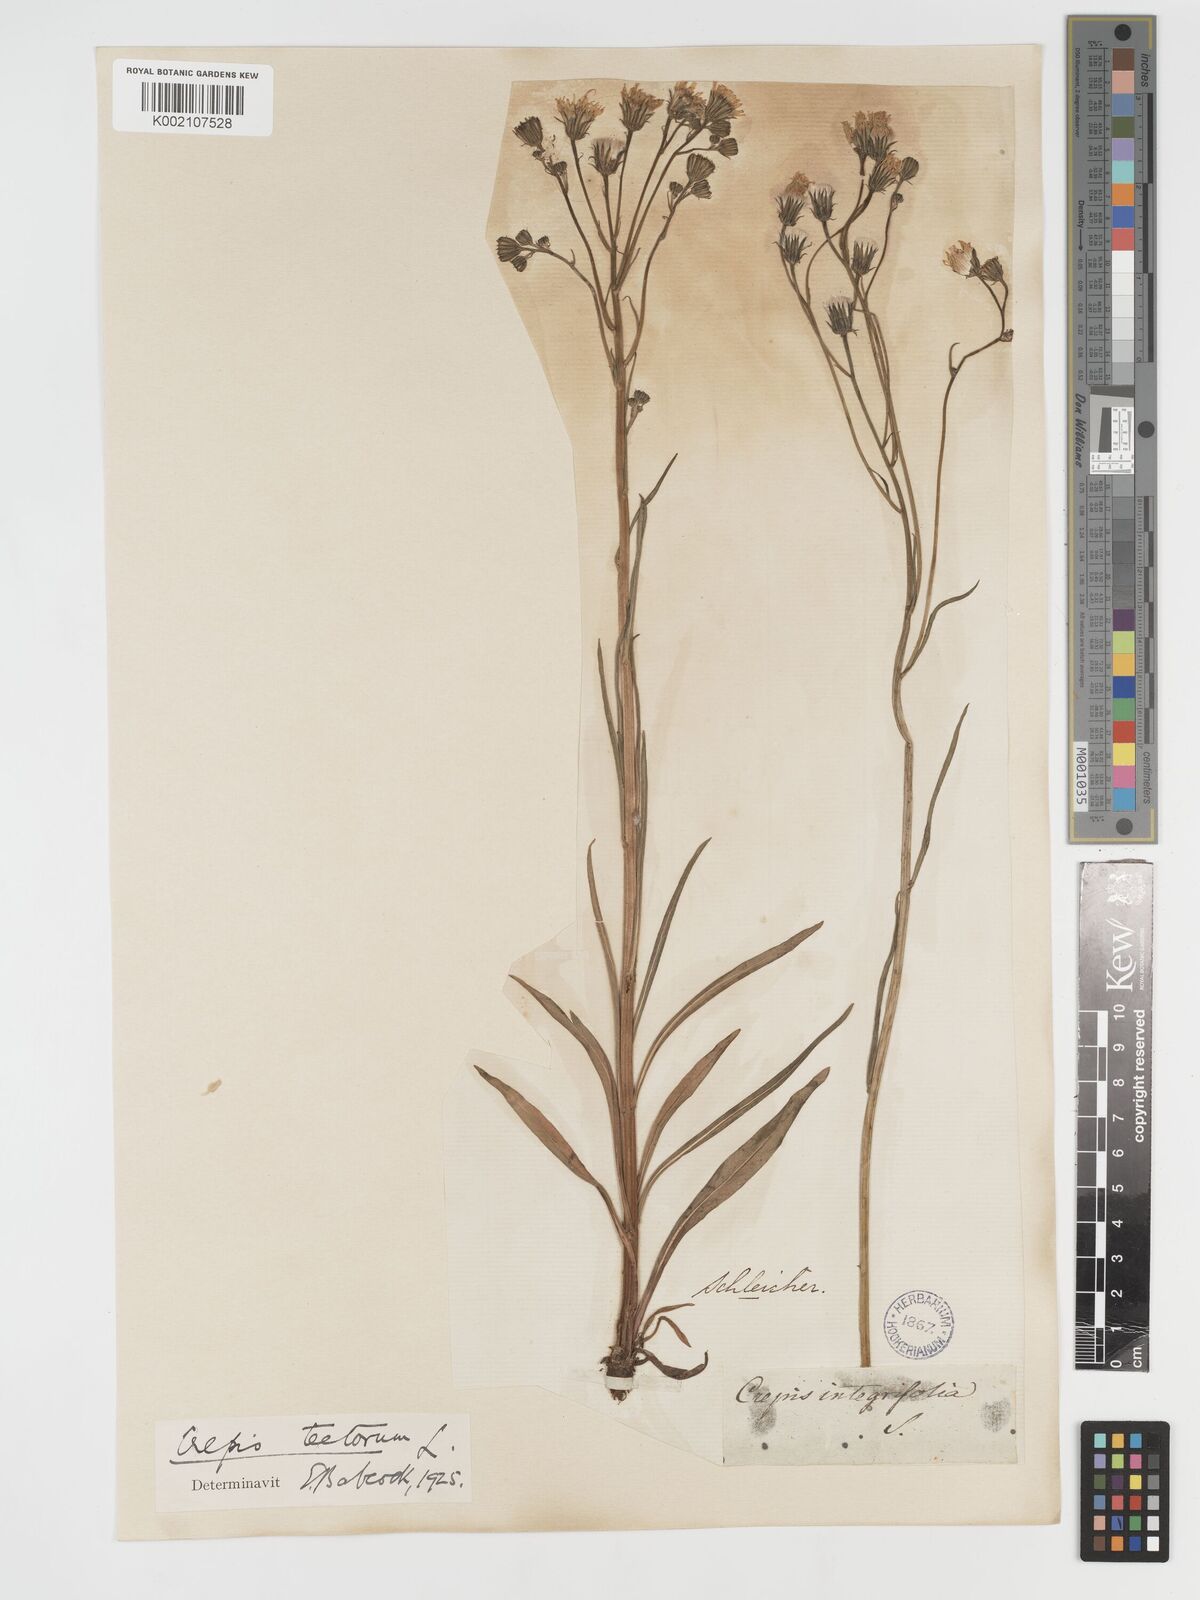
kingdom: Plantae
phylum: Tracheophyta
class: Magnoliopsida
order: Asterales
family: Asteraceae
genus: Crepis
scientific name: Crepis tectorum
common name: Narrow-leaved hawk's-beard
